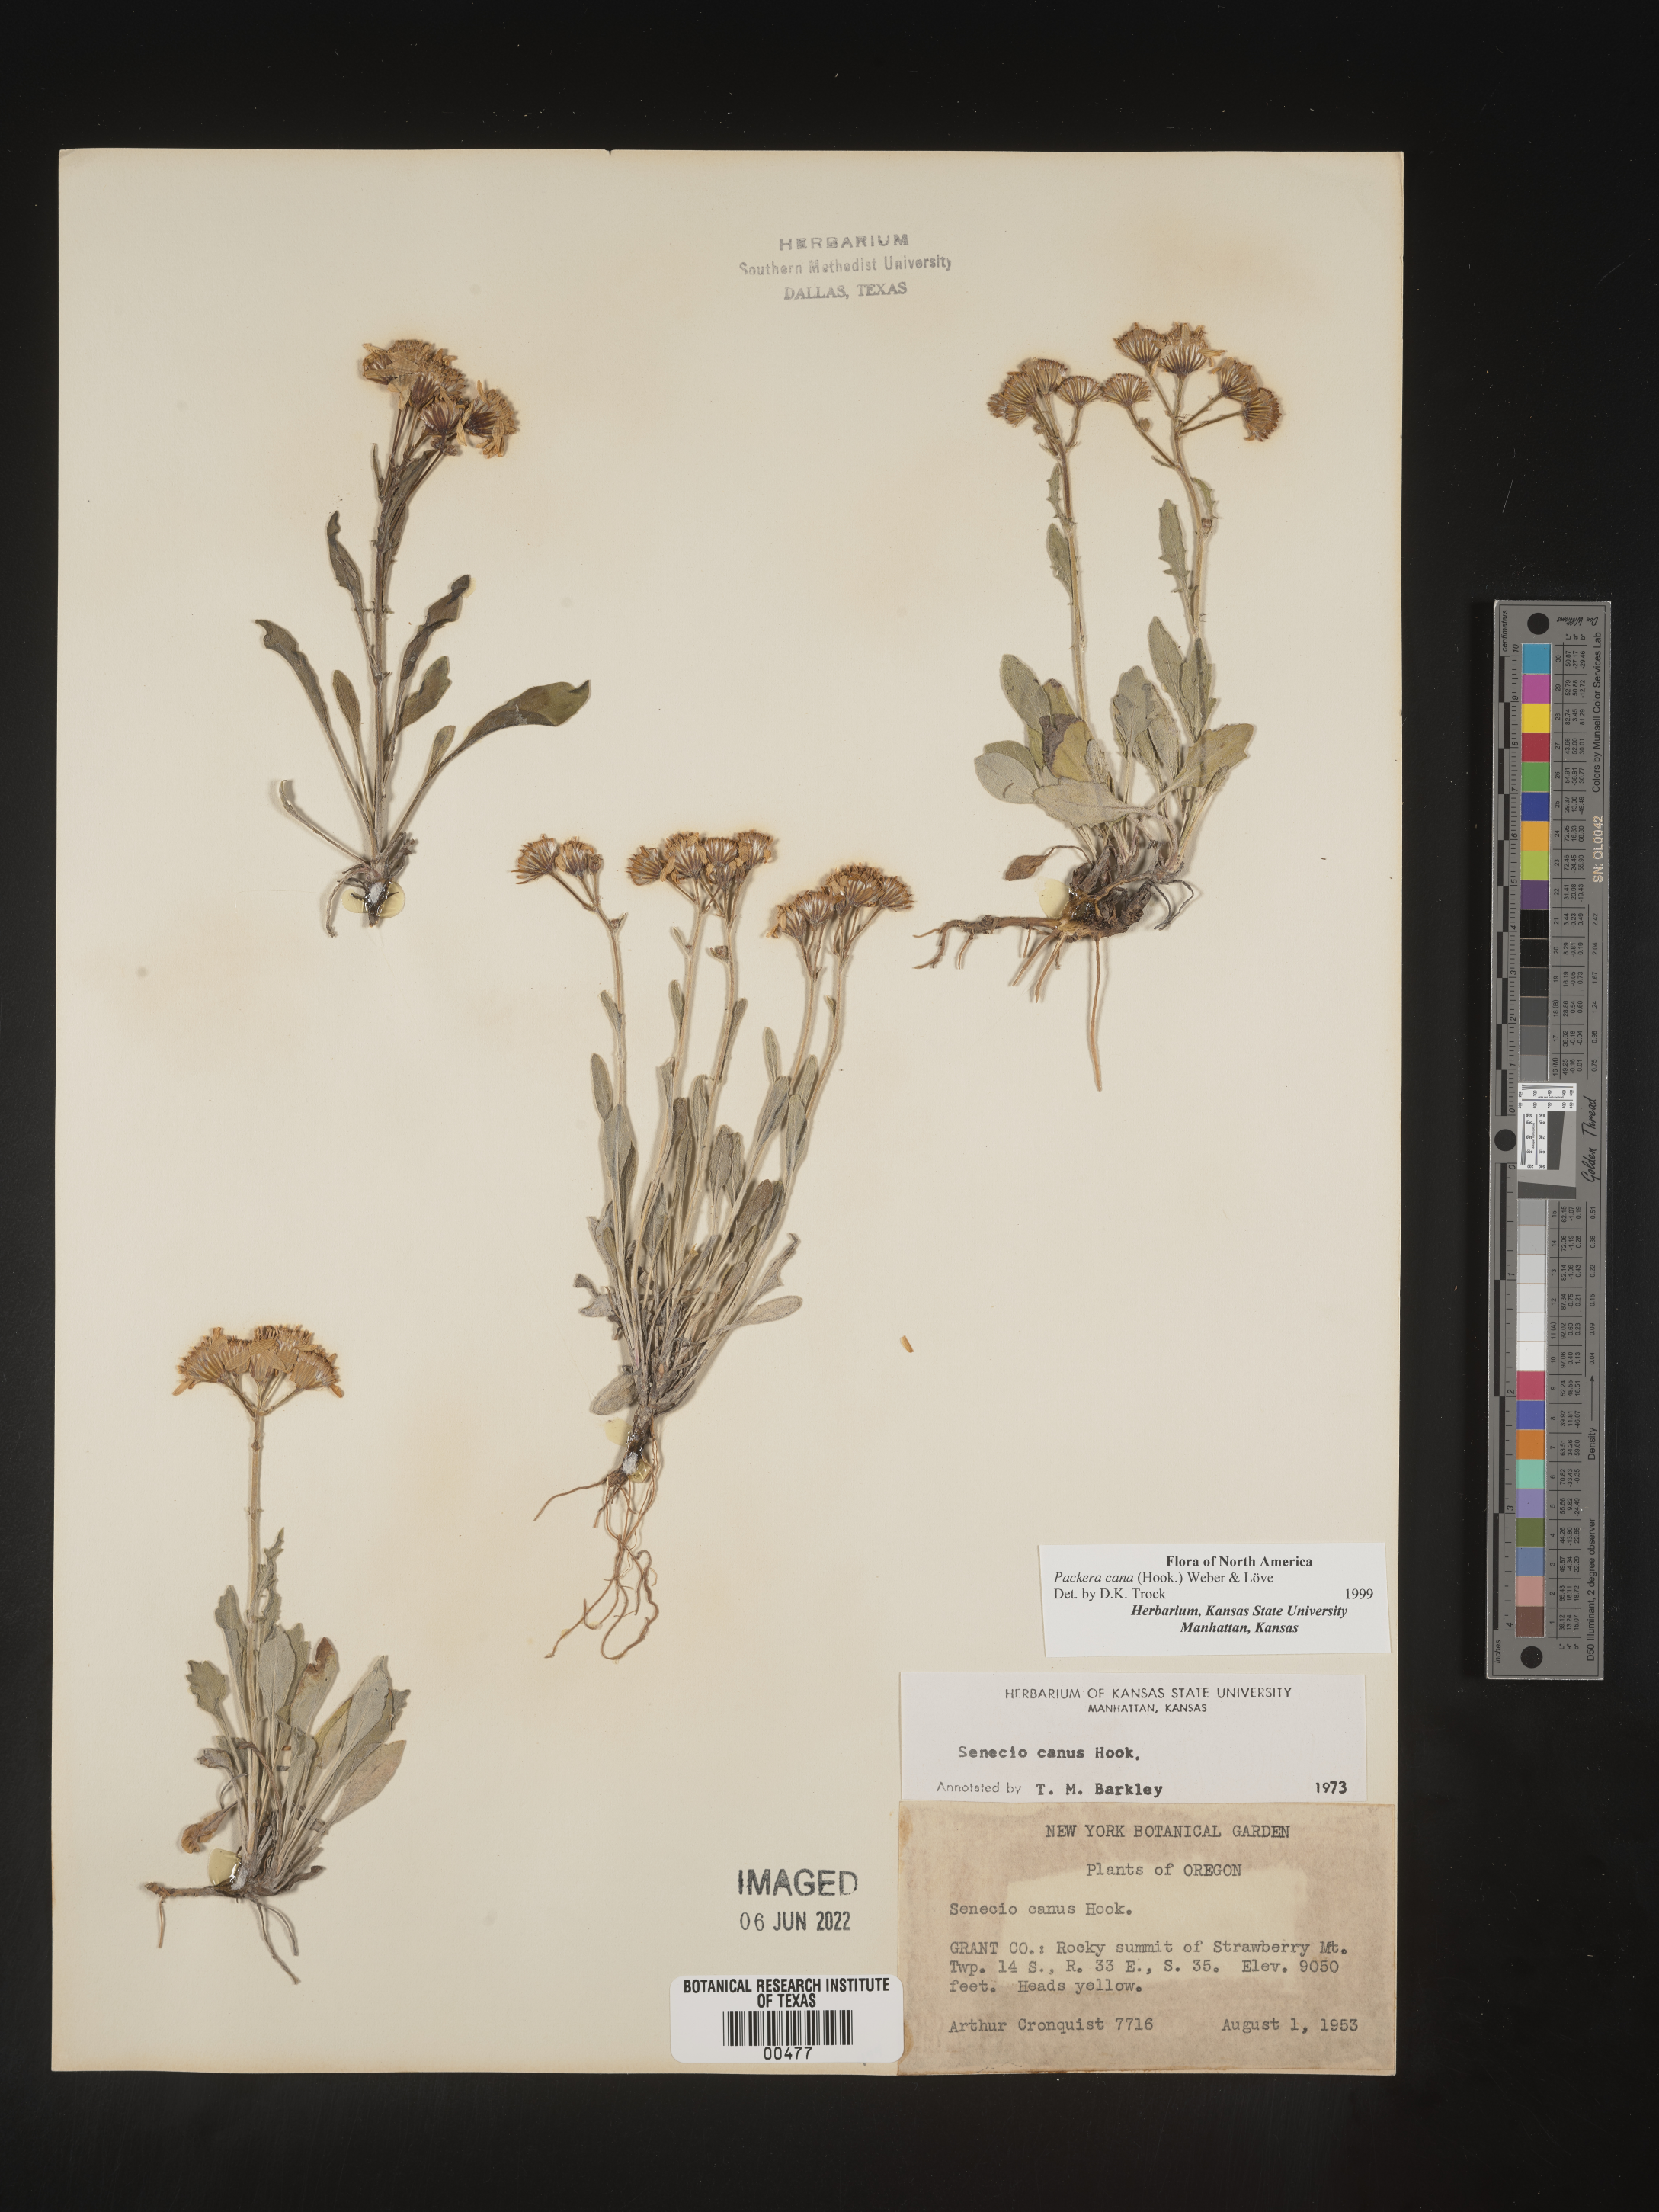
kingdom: Plantae
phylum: Tracheophyta
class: Magnoliopsida
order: Asterales
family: Asteraceae
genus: Packera
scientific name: Packera cana
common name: Woolly groundsel
